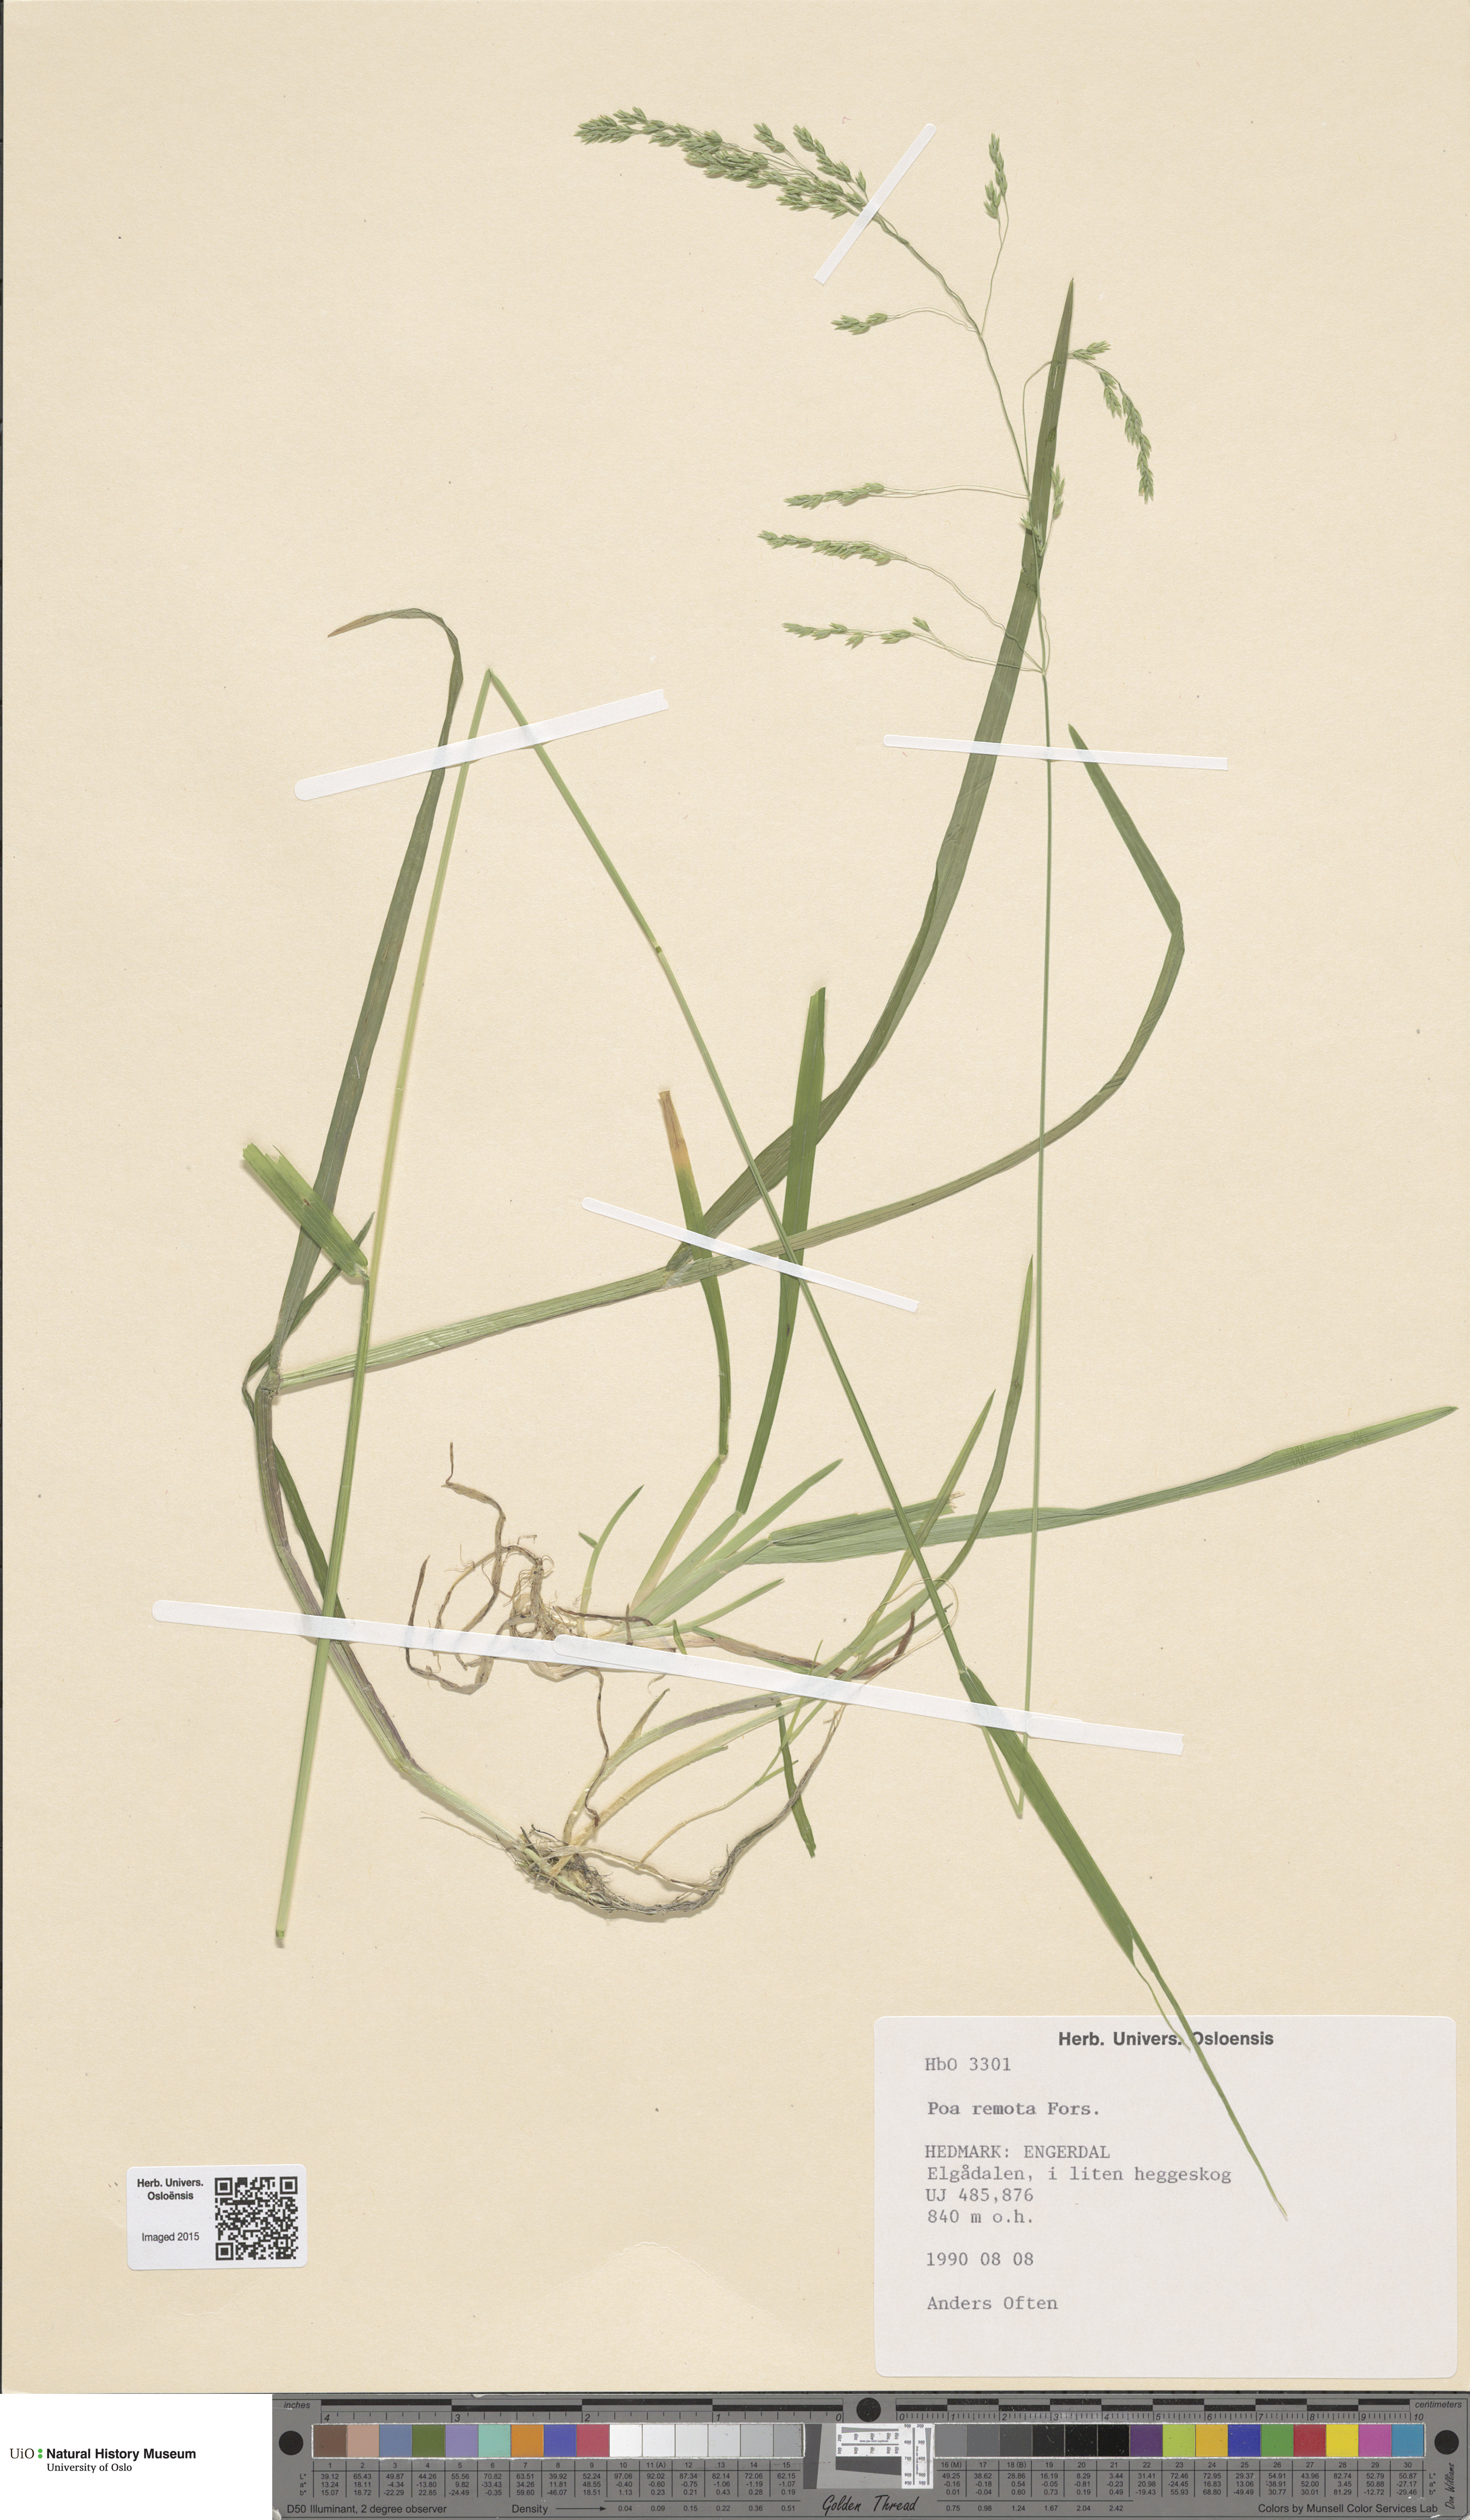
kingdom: Plantae
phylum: Tracheophyta
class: Liliopsida
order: Poales
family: Poaceae
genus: Poa
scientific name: Poa remota
